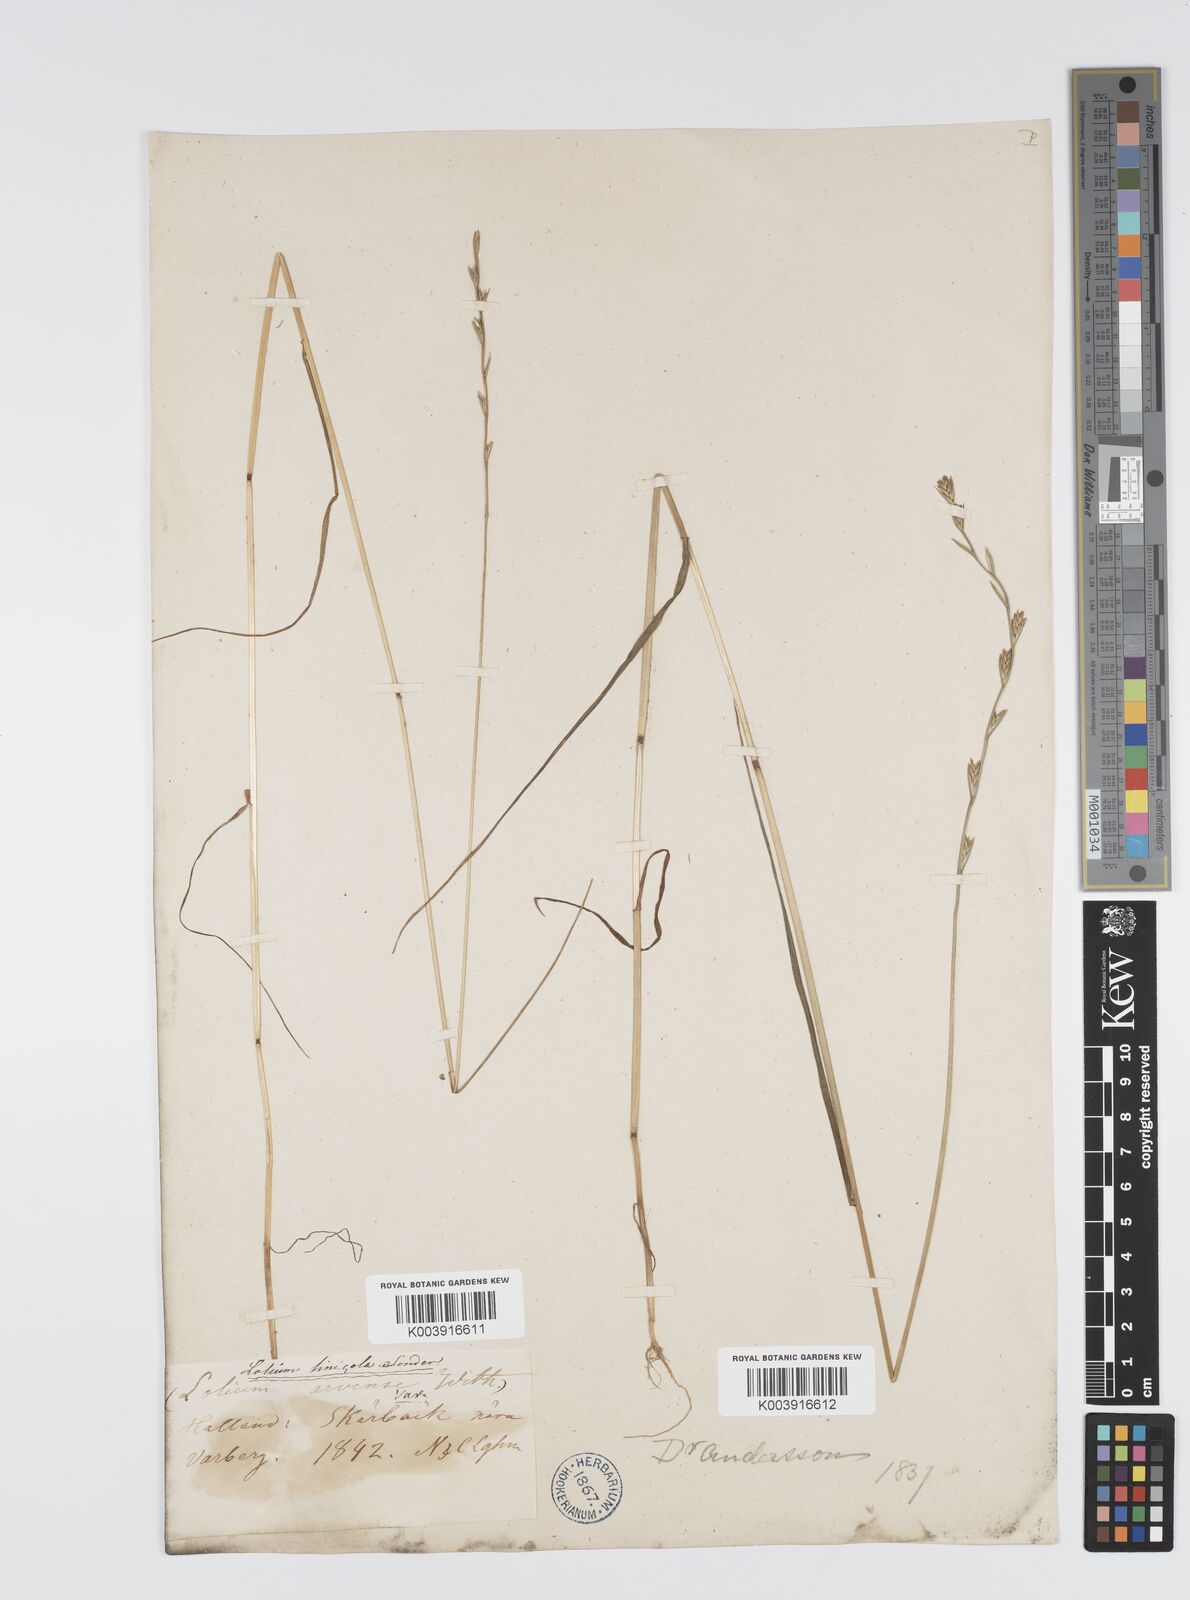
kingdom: Plantae
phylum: Tracheophyta
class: Liliopsida
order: Poales
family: Poaceae
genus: Lolium
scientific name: Lolium remotum
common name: Flaxfield rye-grass
